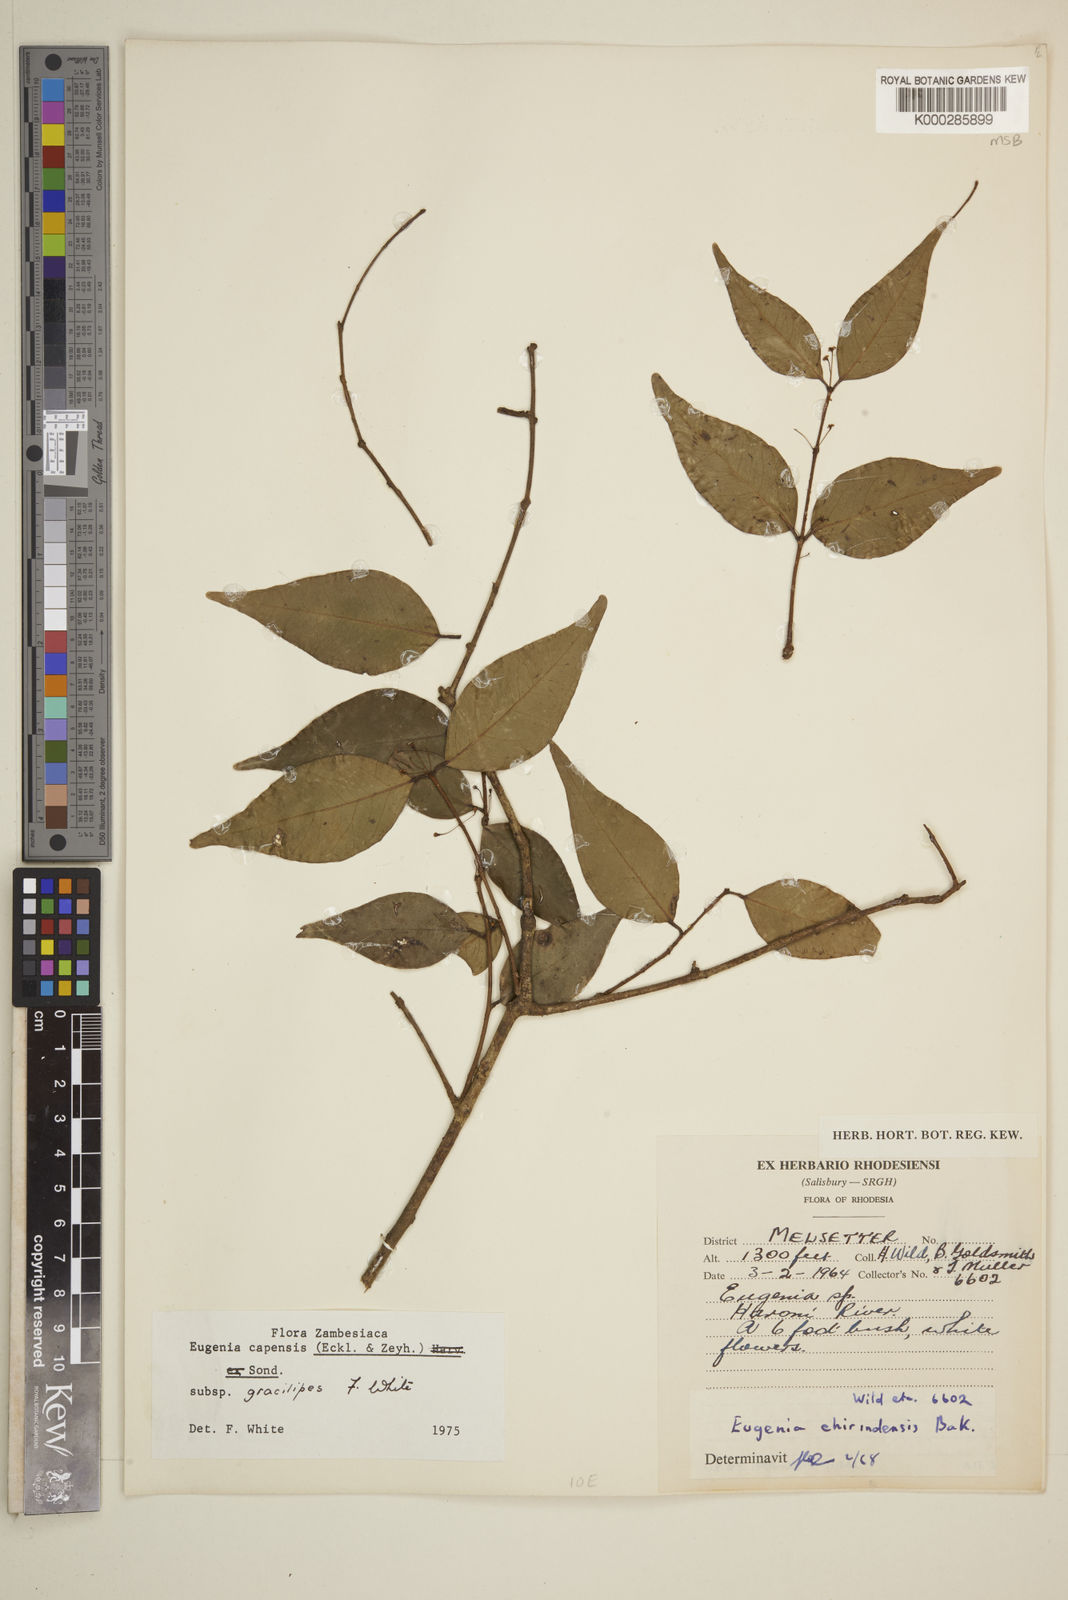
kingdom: Plantae
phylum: Tracheophyta
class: Magnoliopsida
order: Myrtales
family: Myrtaceae
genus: Eugenia
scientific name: Eugenia capensis
